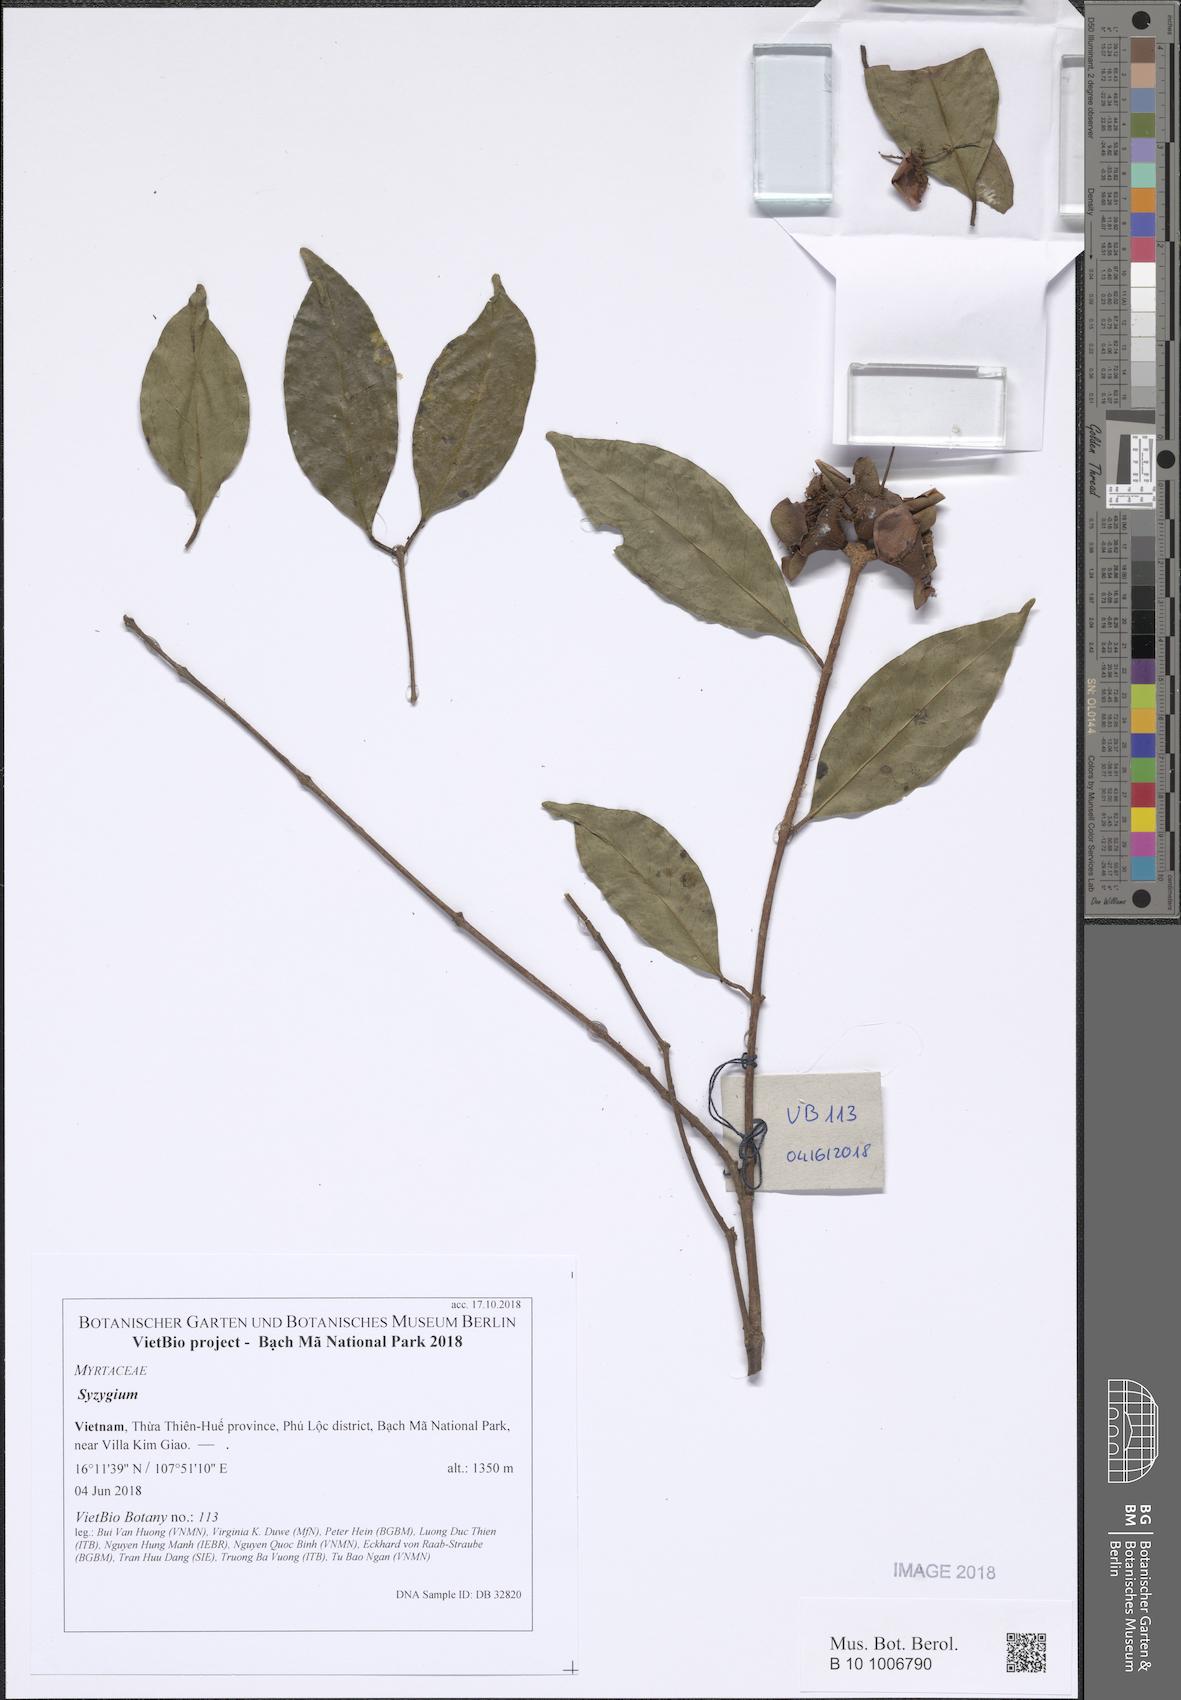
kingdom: Plantae
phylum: Tracheophyta
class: Magnoliopsida
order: Myrtales
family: Myrtaceae
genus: Syzygium
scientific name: Syzygium
